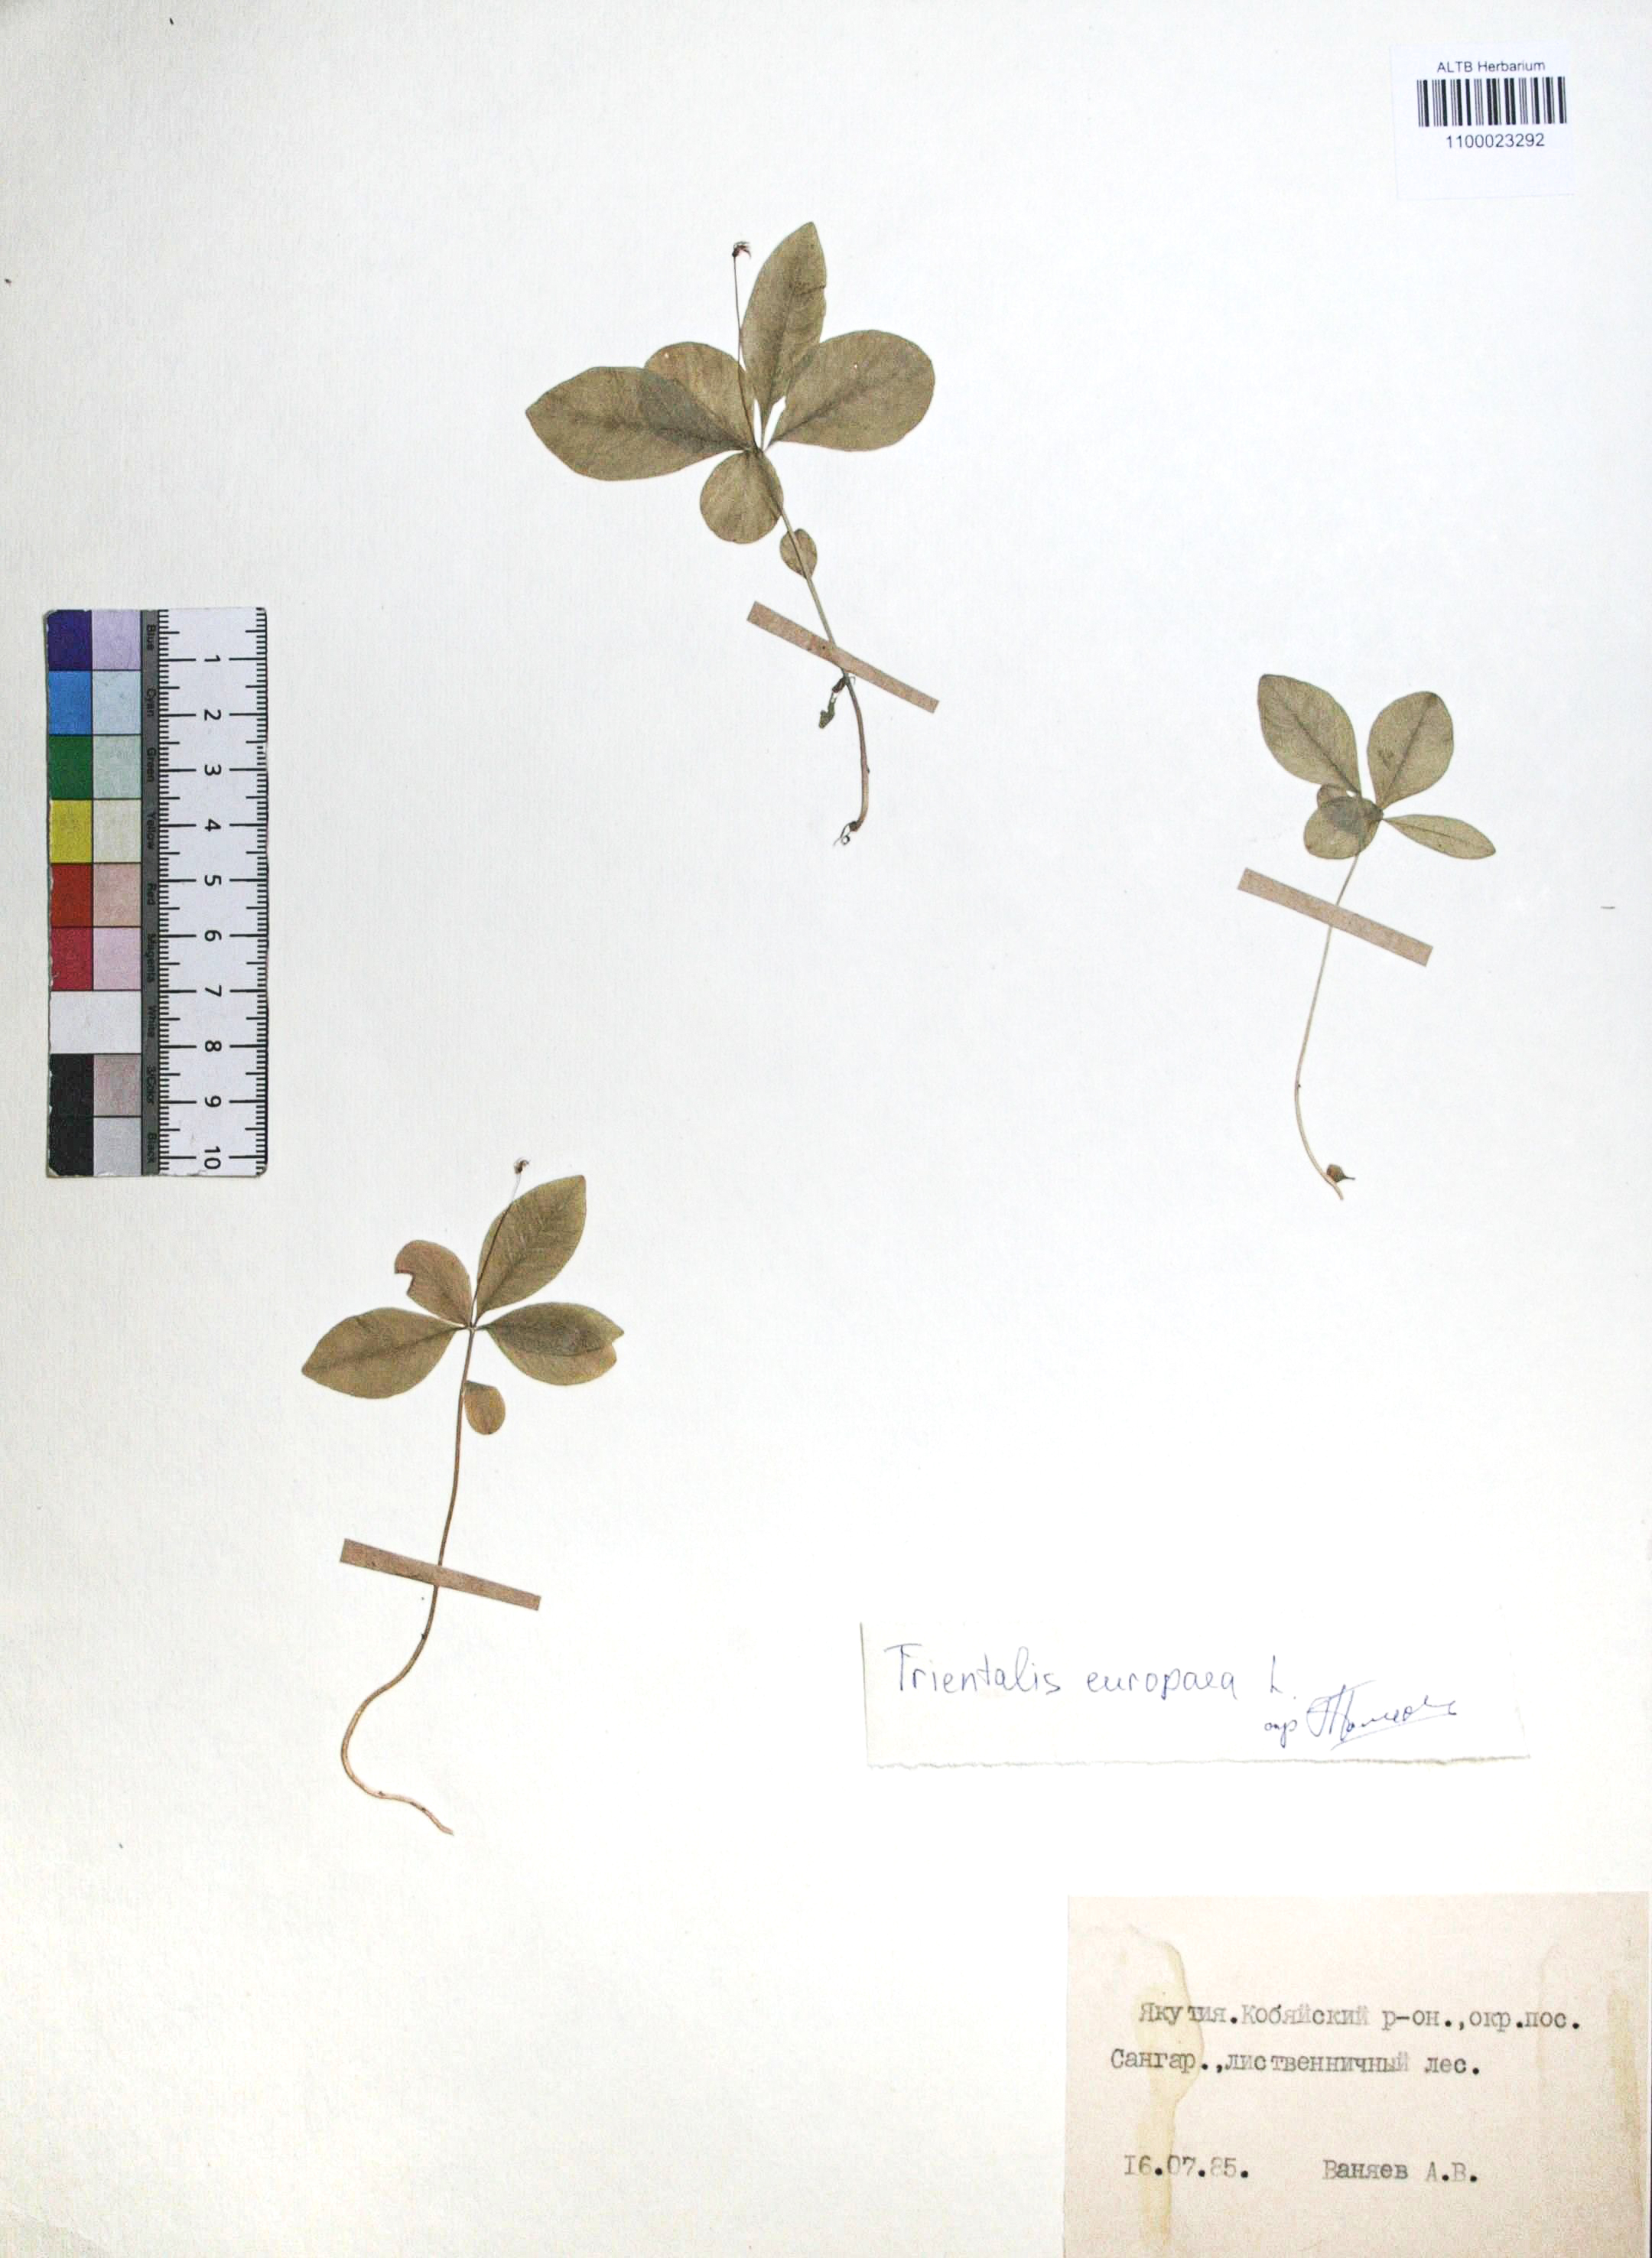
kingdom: Plantae
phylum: Tracheophyta
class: Magnoliopsida
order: Ericales
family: Primulaceae
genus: Lysimachia
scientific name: Lysimachia europaea
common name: Arctic starflower
